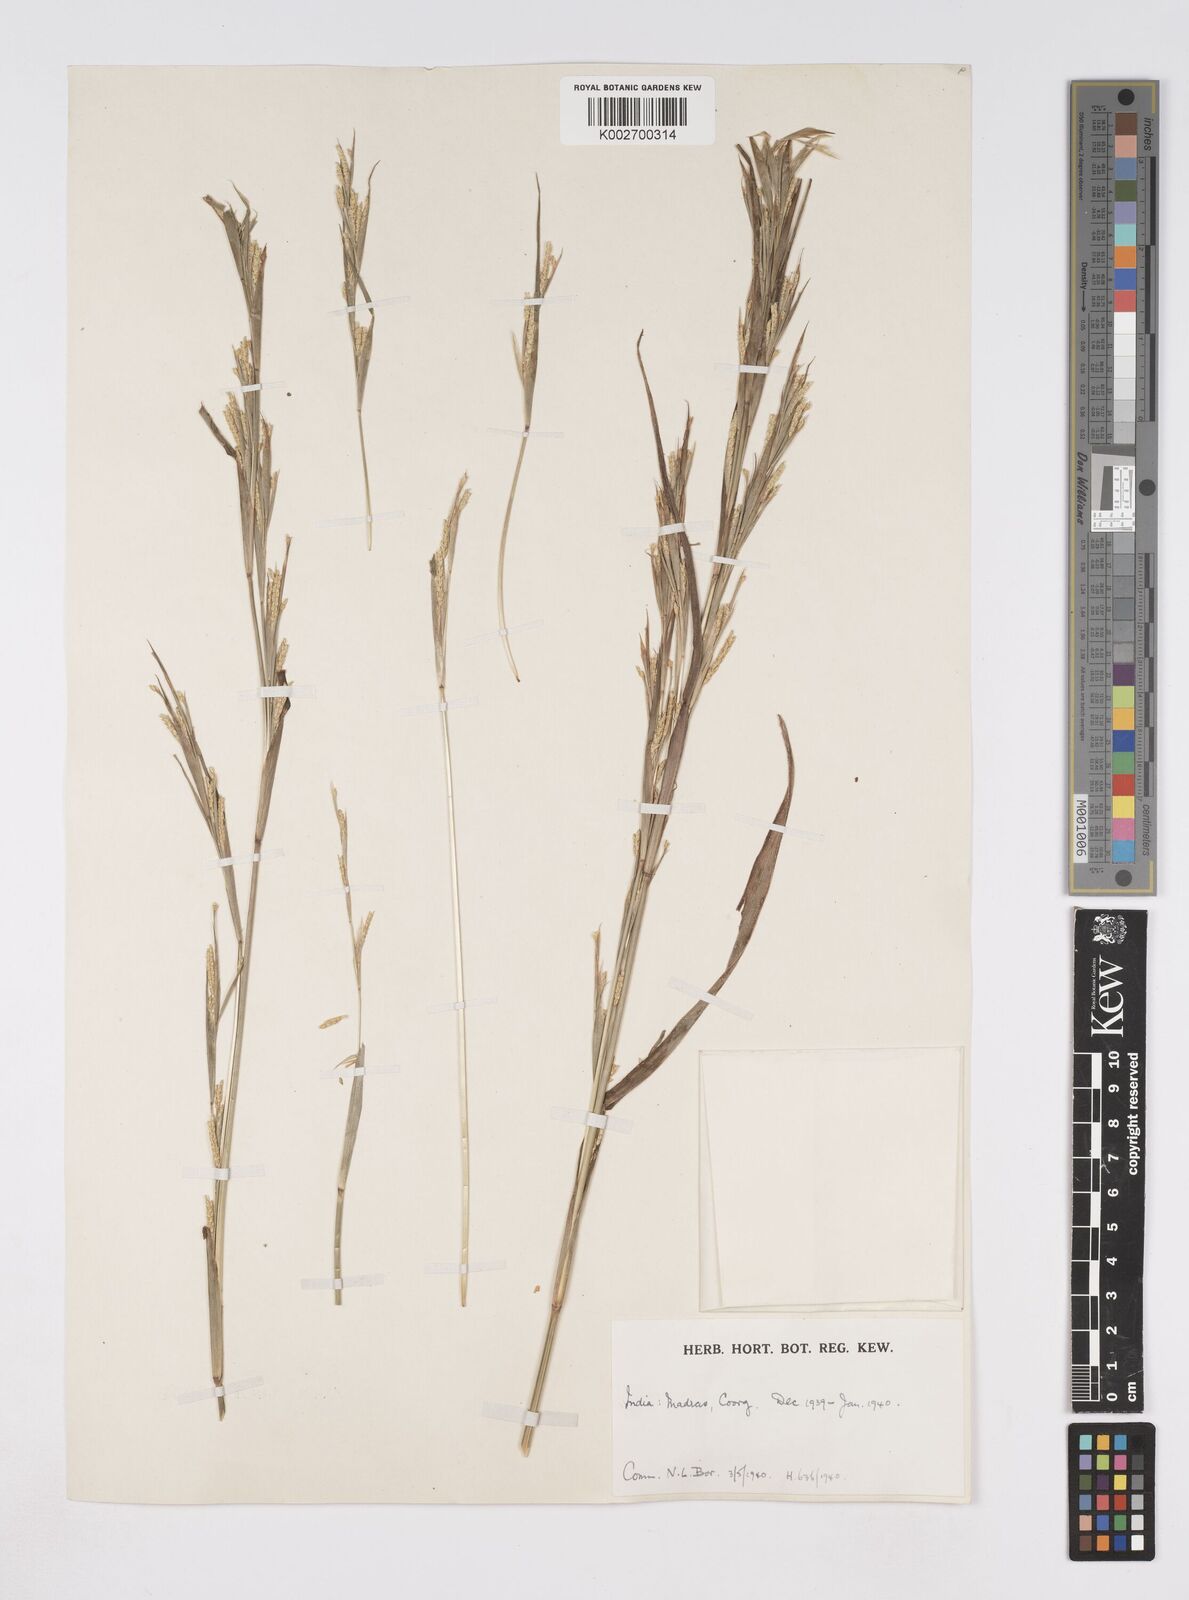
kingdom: Plantae
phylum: Tracheophyta
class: Liliopsida
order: Poales
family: Poaceae
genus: Rottboellia
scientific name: Rottboellia clarkei
